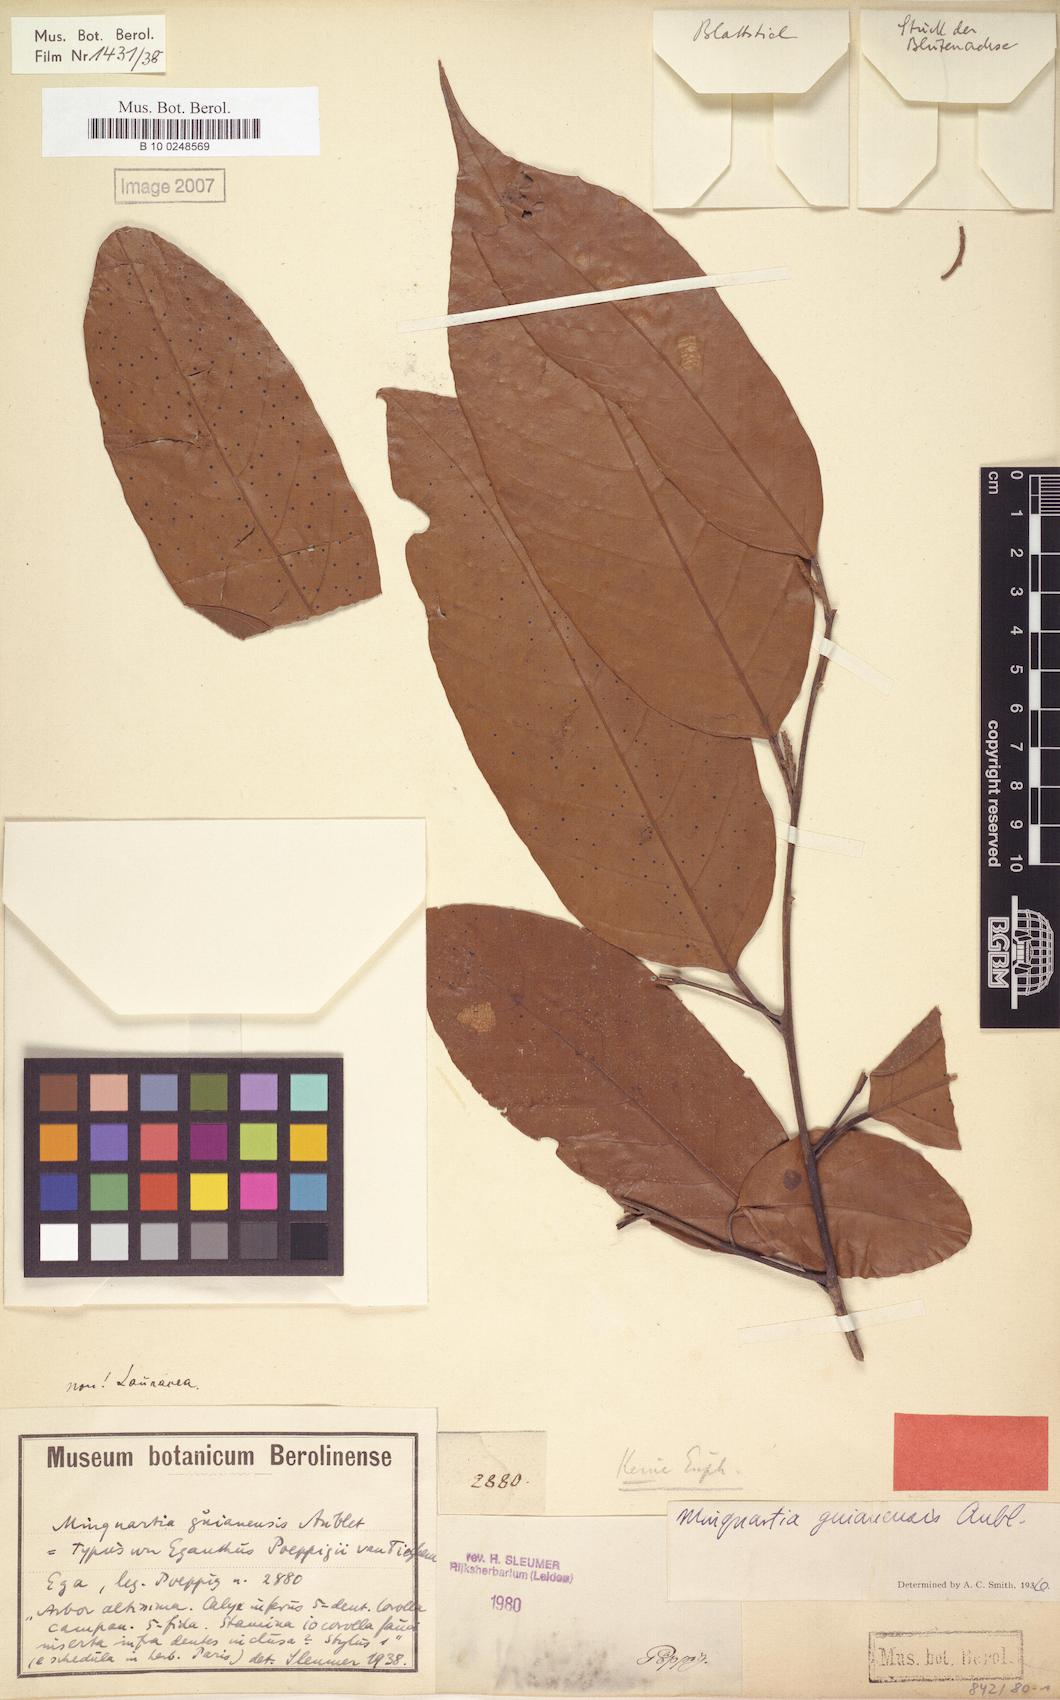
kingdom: Plantae
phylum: Tracheophyta
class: Magnoliopsida
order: Santalales
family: Coulaceae
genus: Minquartia
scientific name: Minquartia guianensis
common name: Black manwood
